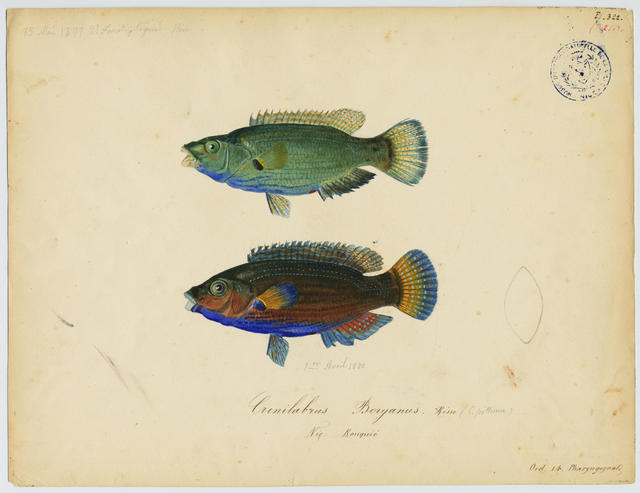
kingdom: Animalia
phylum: Chordata
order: Perciformes
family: Labridae
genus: Symphodus
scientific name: Symphodus mediterraneus
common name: Axillary wrasse
